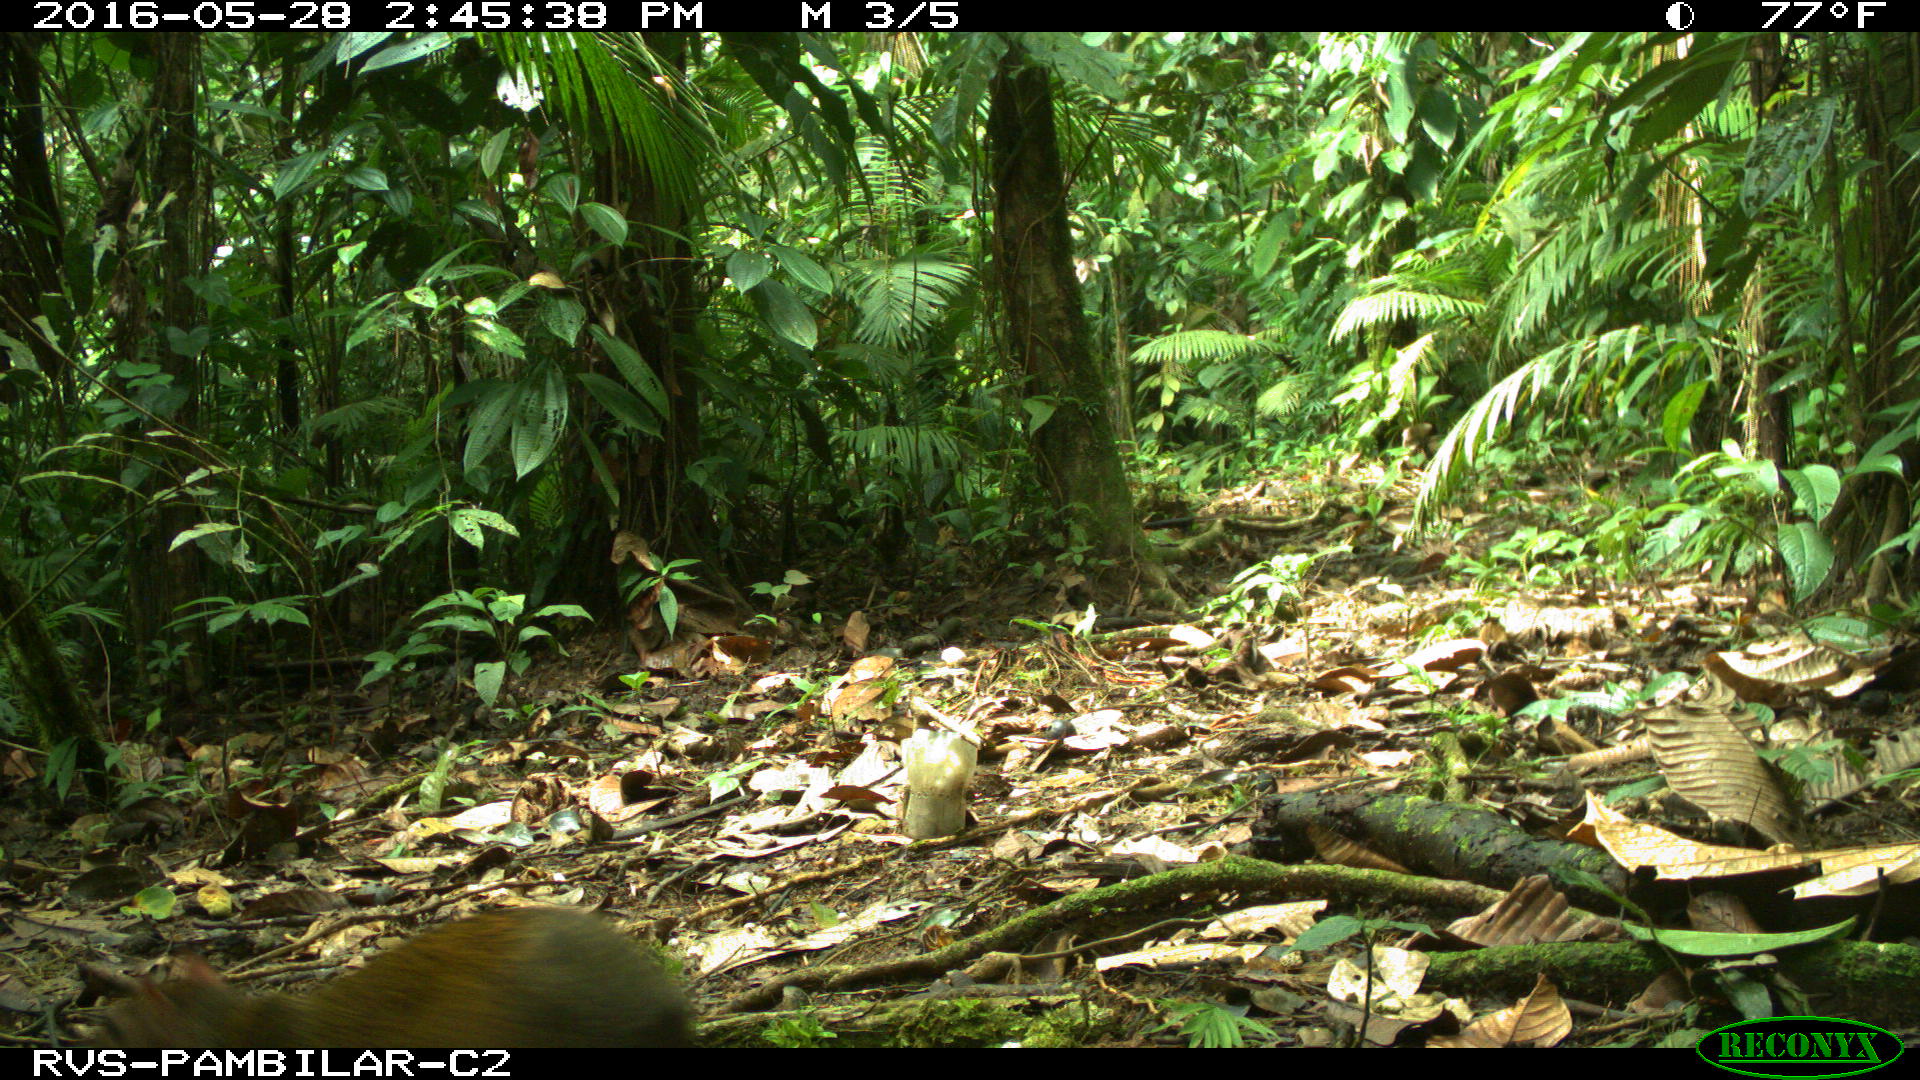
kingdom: Animalia
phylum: Chordata
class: Mammalia
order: Rodentia
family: Dasyproctidae
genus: Dasyprocta
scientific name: Dasyprocta punctata
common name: Central american agouti
